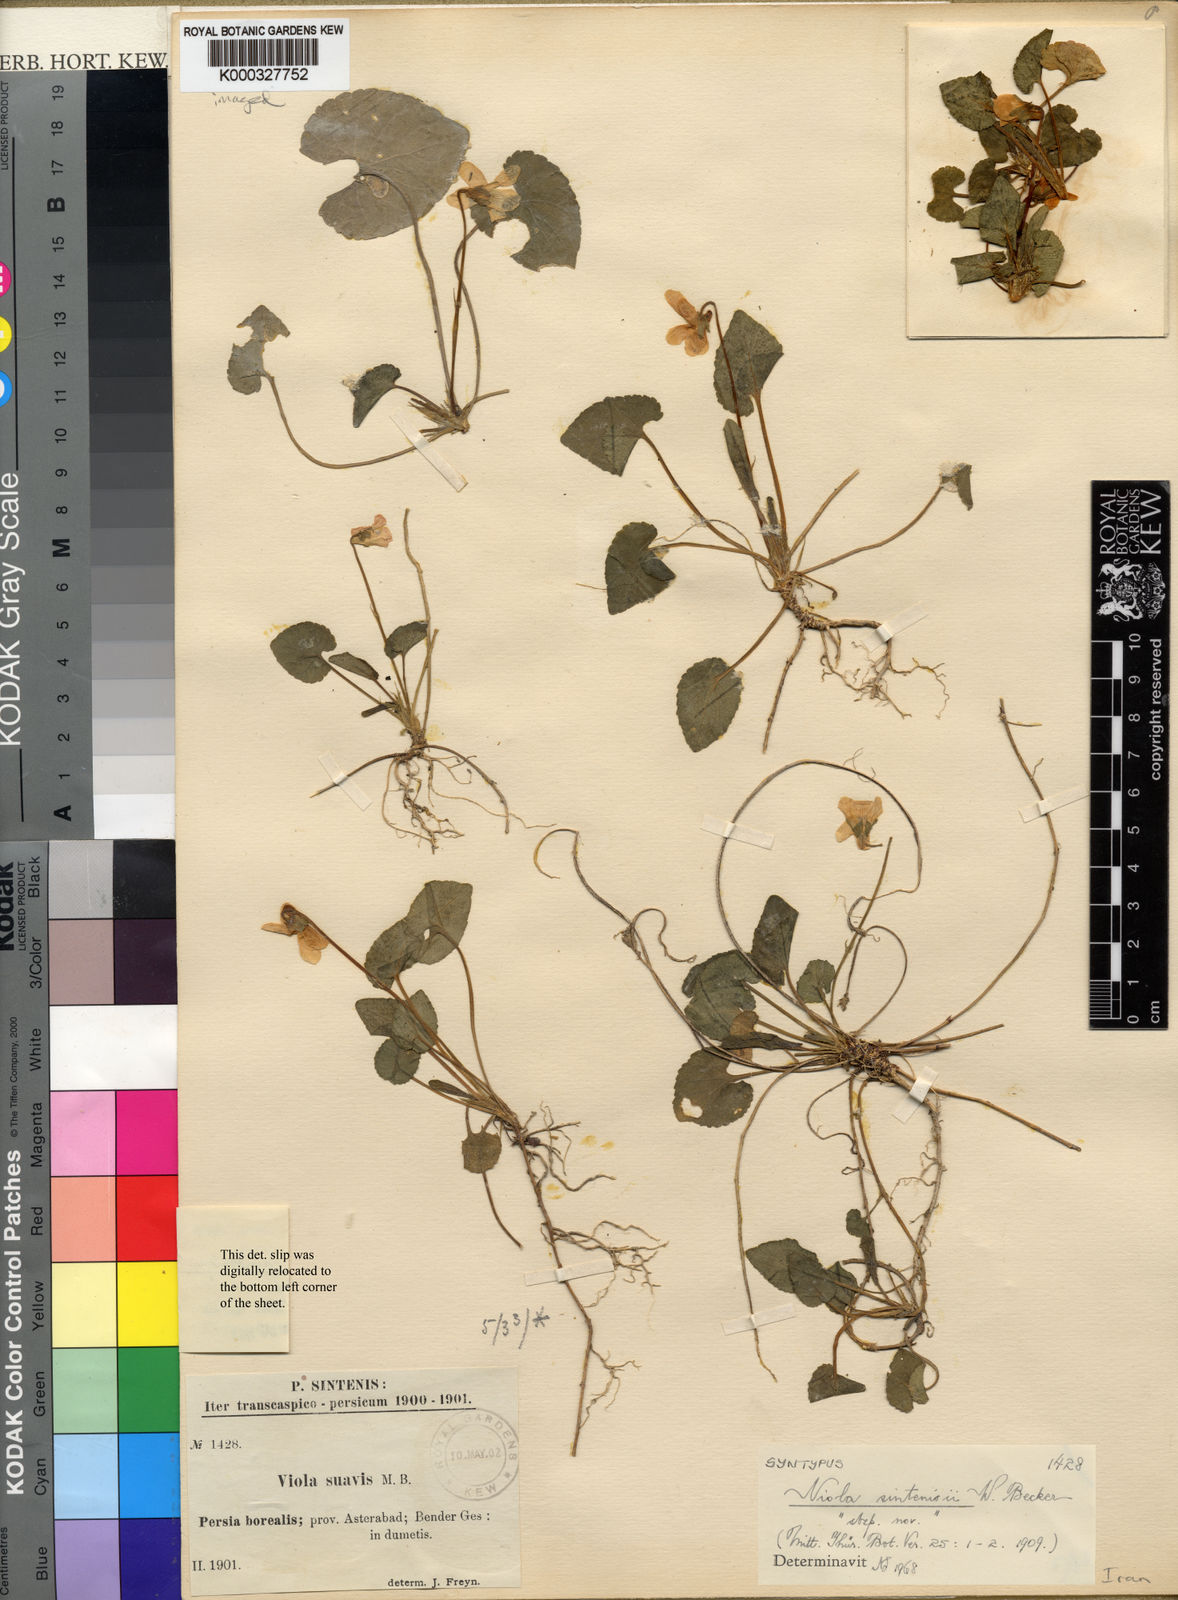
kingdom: Plantae
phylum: Tracheophyta
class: Magnoliopsida
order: Malpighiales
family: Violaceae
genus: Viola
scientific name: Viola sintenisii
